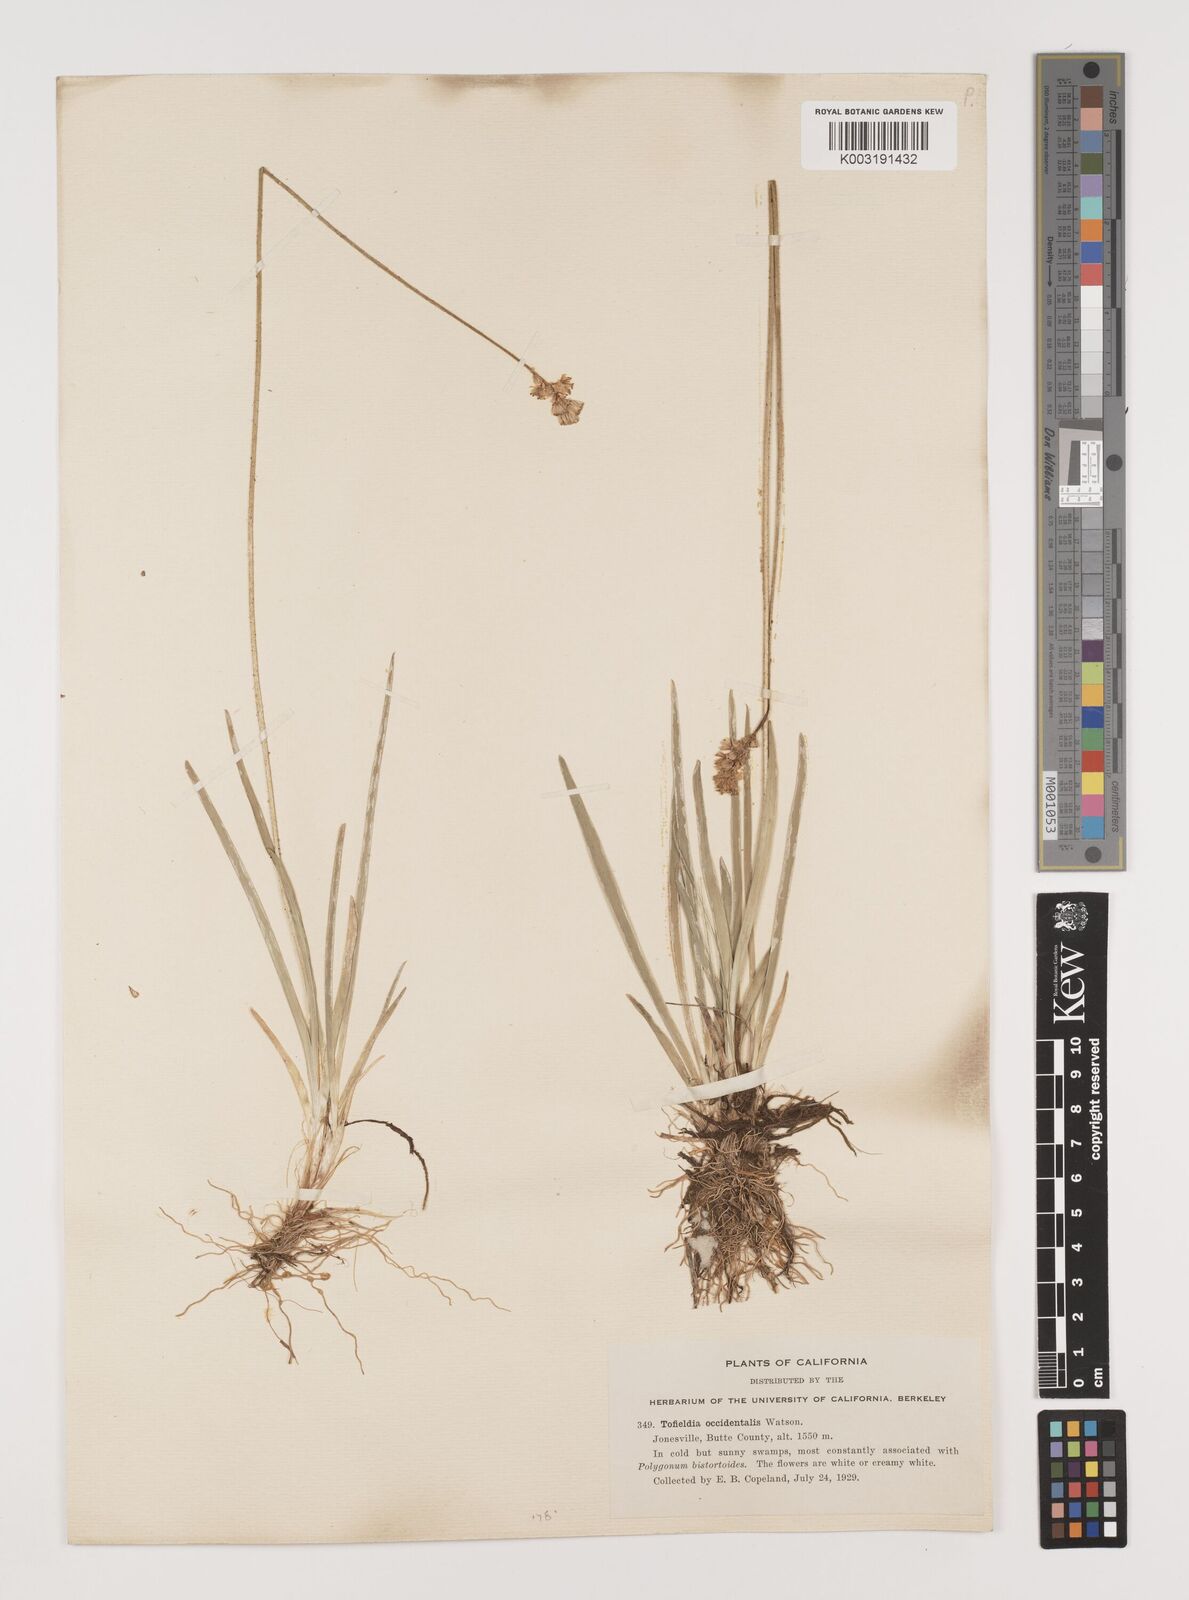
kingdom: Plantae
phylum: Tracheophyta
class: Liliopsida
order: Alismatales
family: Tofieldiaceae
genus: Triantha
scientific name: Triantha occidentalis
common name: Western false asphodel
